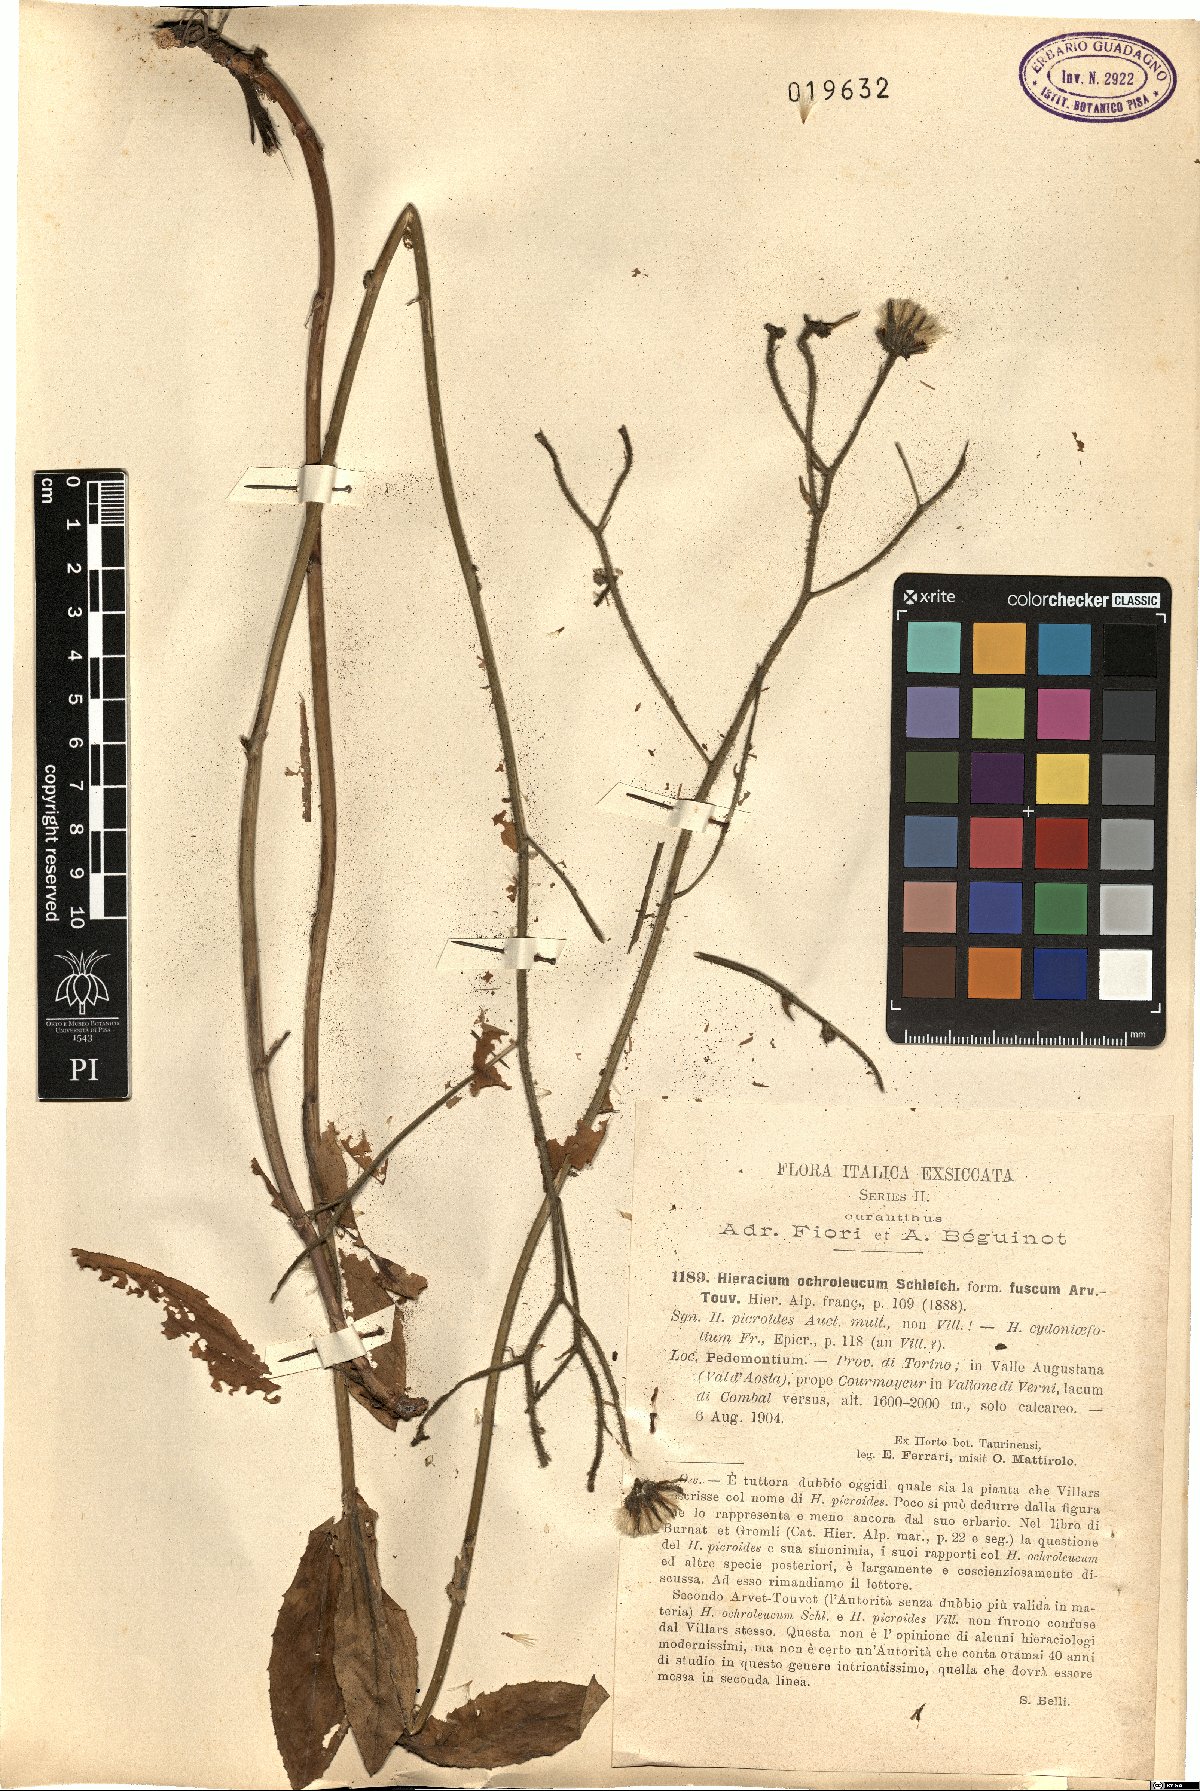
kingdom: Plantae
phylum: Tracheophyta
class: Magnoliopsida
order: Asterales
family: Asteraceae
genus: Hieracium
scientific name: Hieracium ochroleucum
